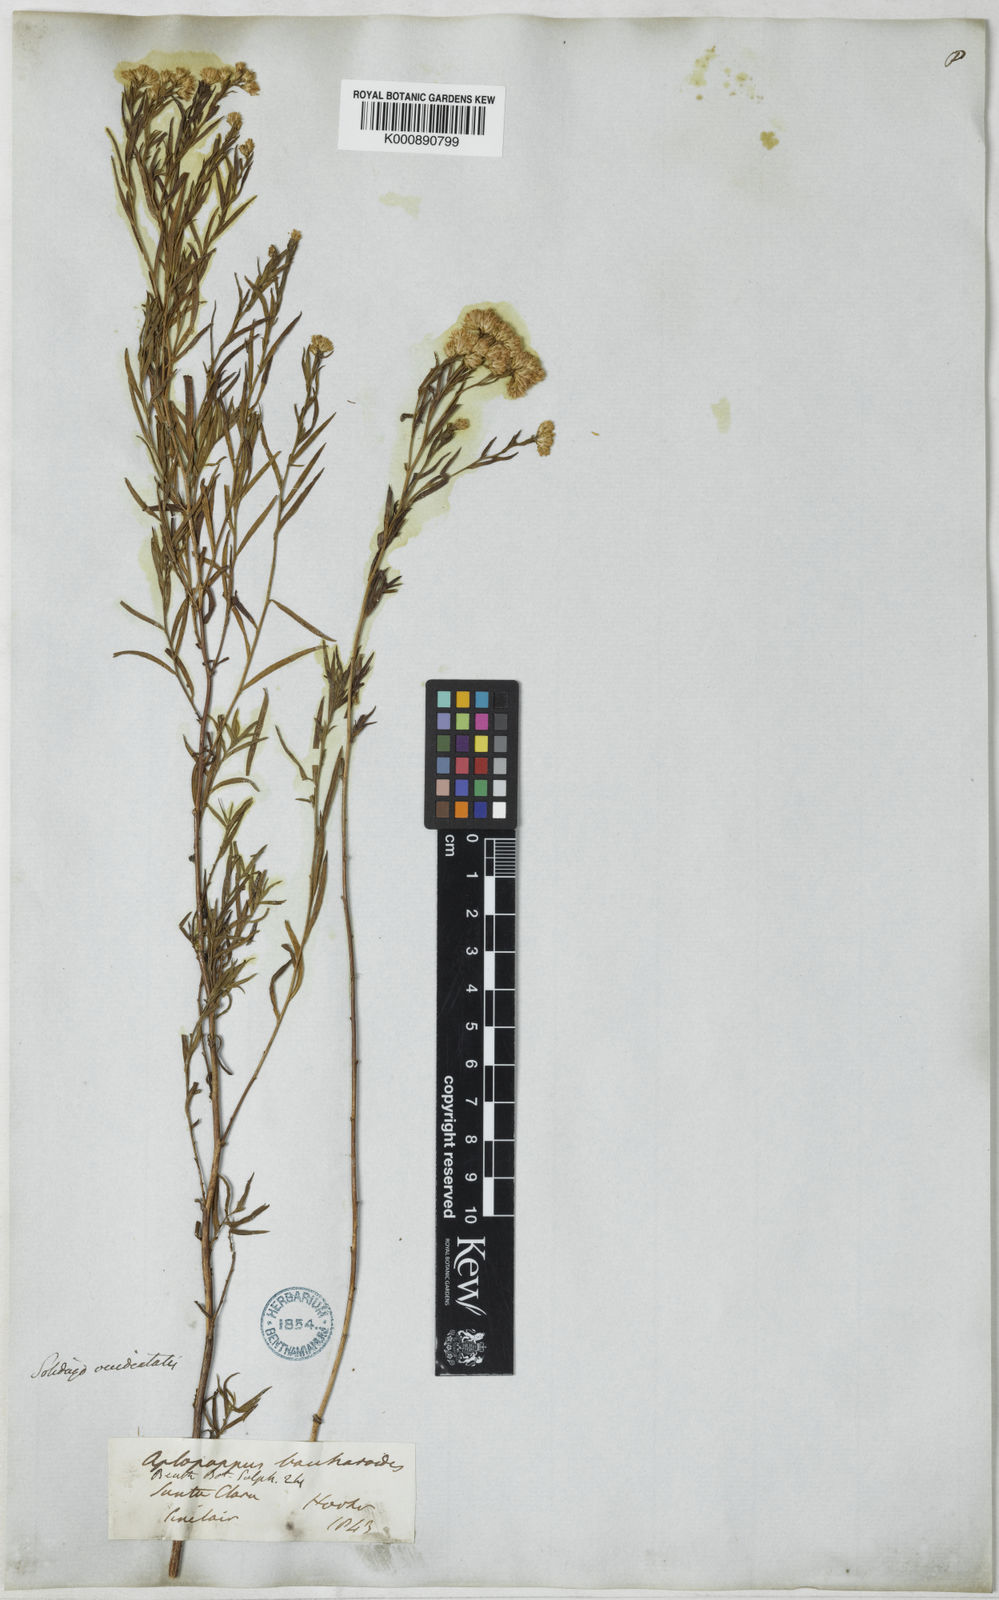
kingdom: Plantae
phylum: Tracheophyta
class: Magnoliopsida
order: Asterales
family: Asteraceae
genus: Euthamia
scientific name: Euthamia occidentalis
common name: Western goldentop
